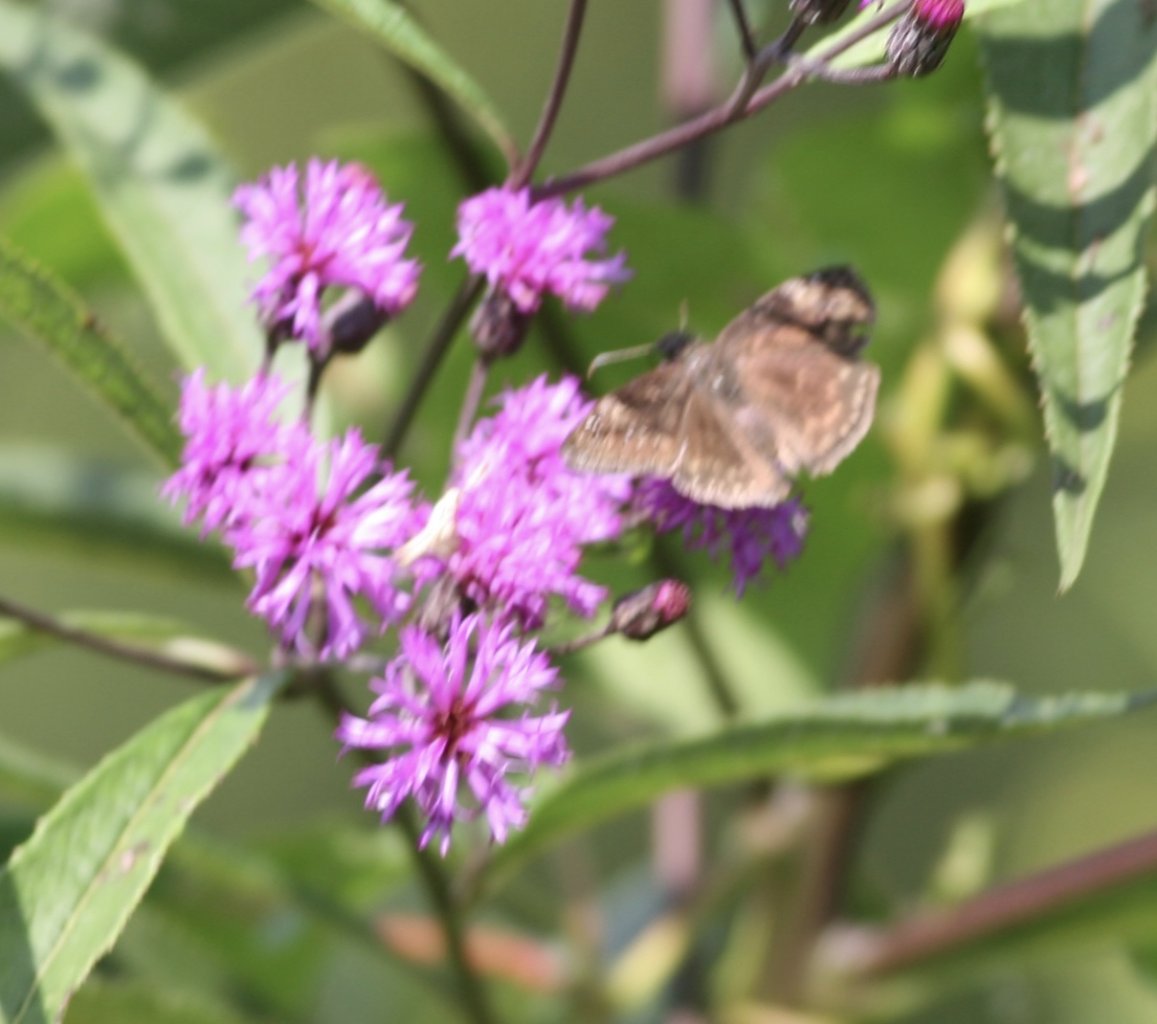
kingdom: Animalia
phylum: Arthropoda
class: Insecta
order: Lepidoptera
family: Hesperiidae
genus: Gesta
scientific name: Gesta
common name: Horace's Duskywing
